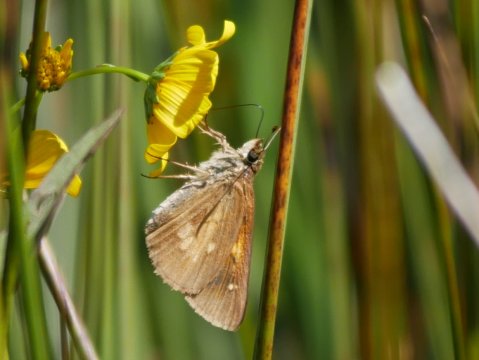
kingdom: Animalia
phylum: Arthropoda
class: Insecta
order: Lepidoptera
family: Hesperiidae
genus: Poanes
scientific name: Poanes viator
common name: Broad-winged Skipper
